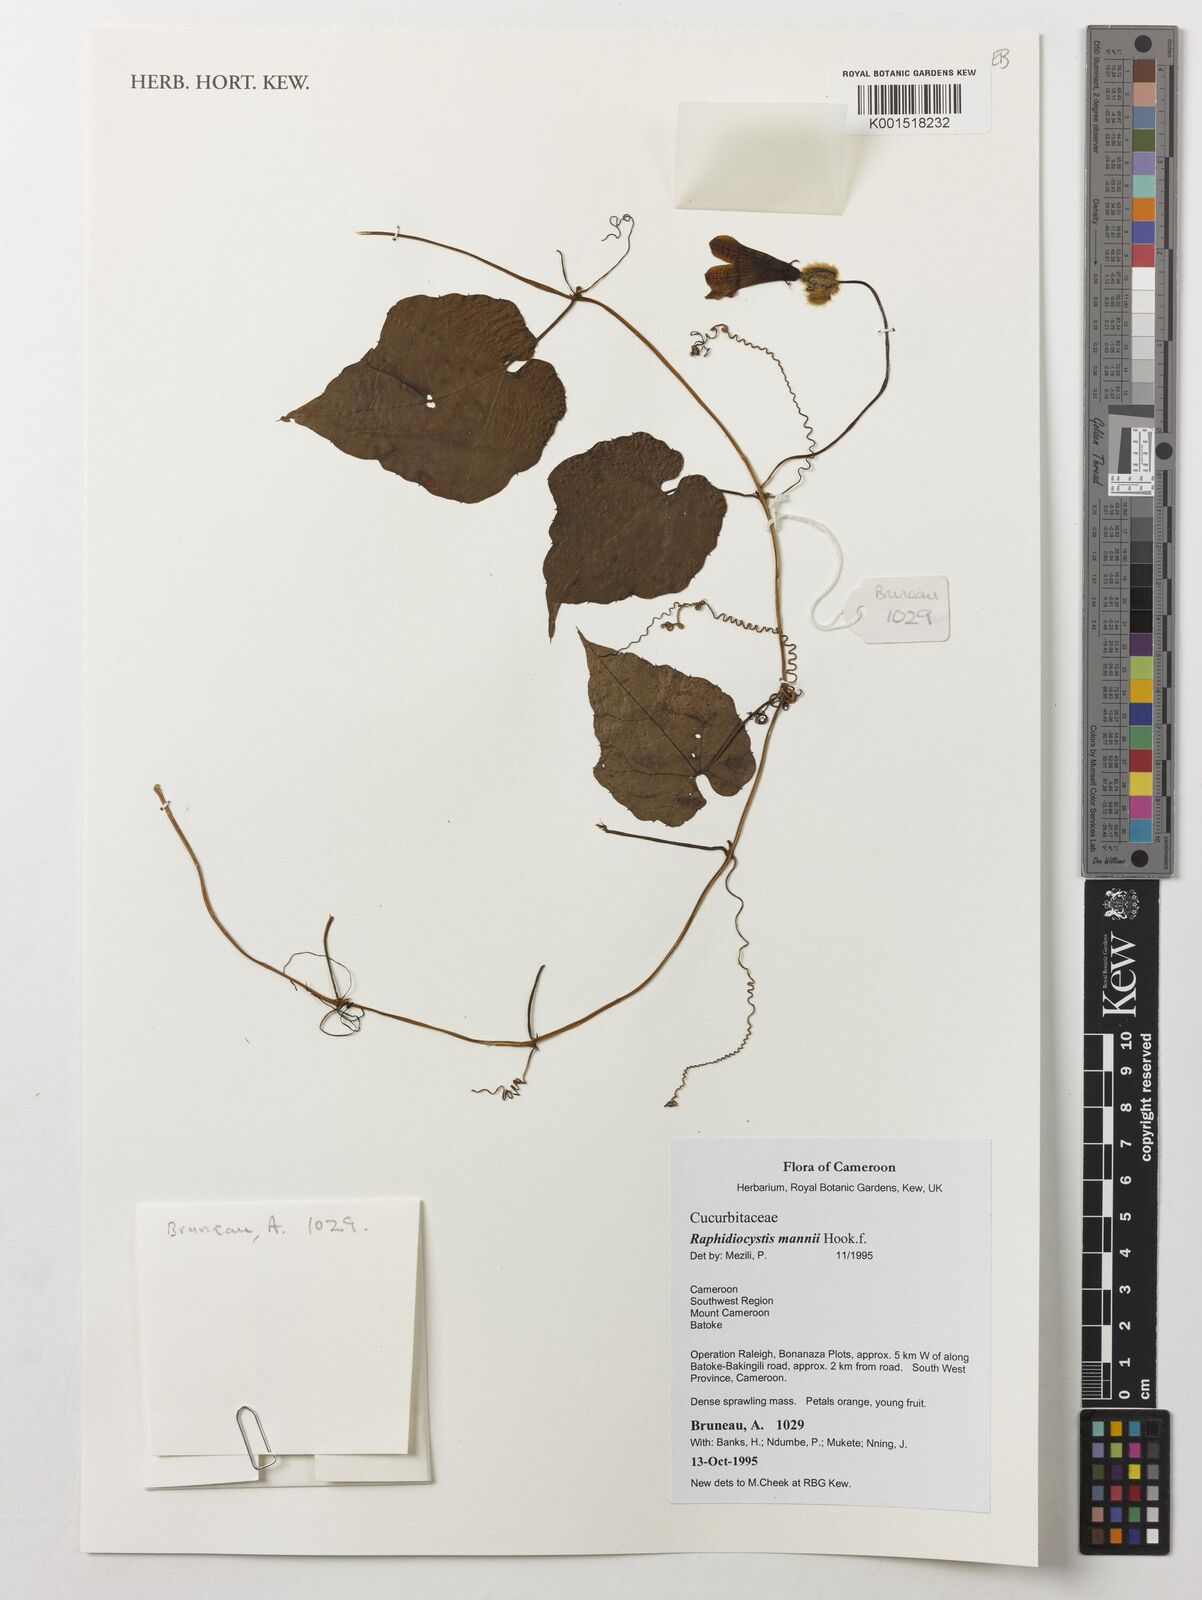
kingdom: Plantae
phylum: Tracheophyta
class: Magnoliopsida
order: Cucurbitales
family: Cucurbitaceae
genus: Raphidiocystis
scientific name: Raphidiocystis mannii
